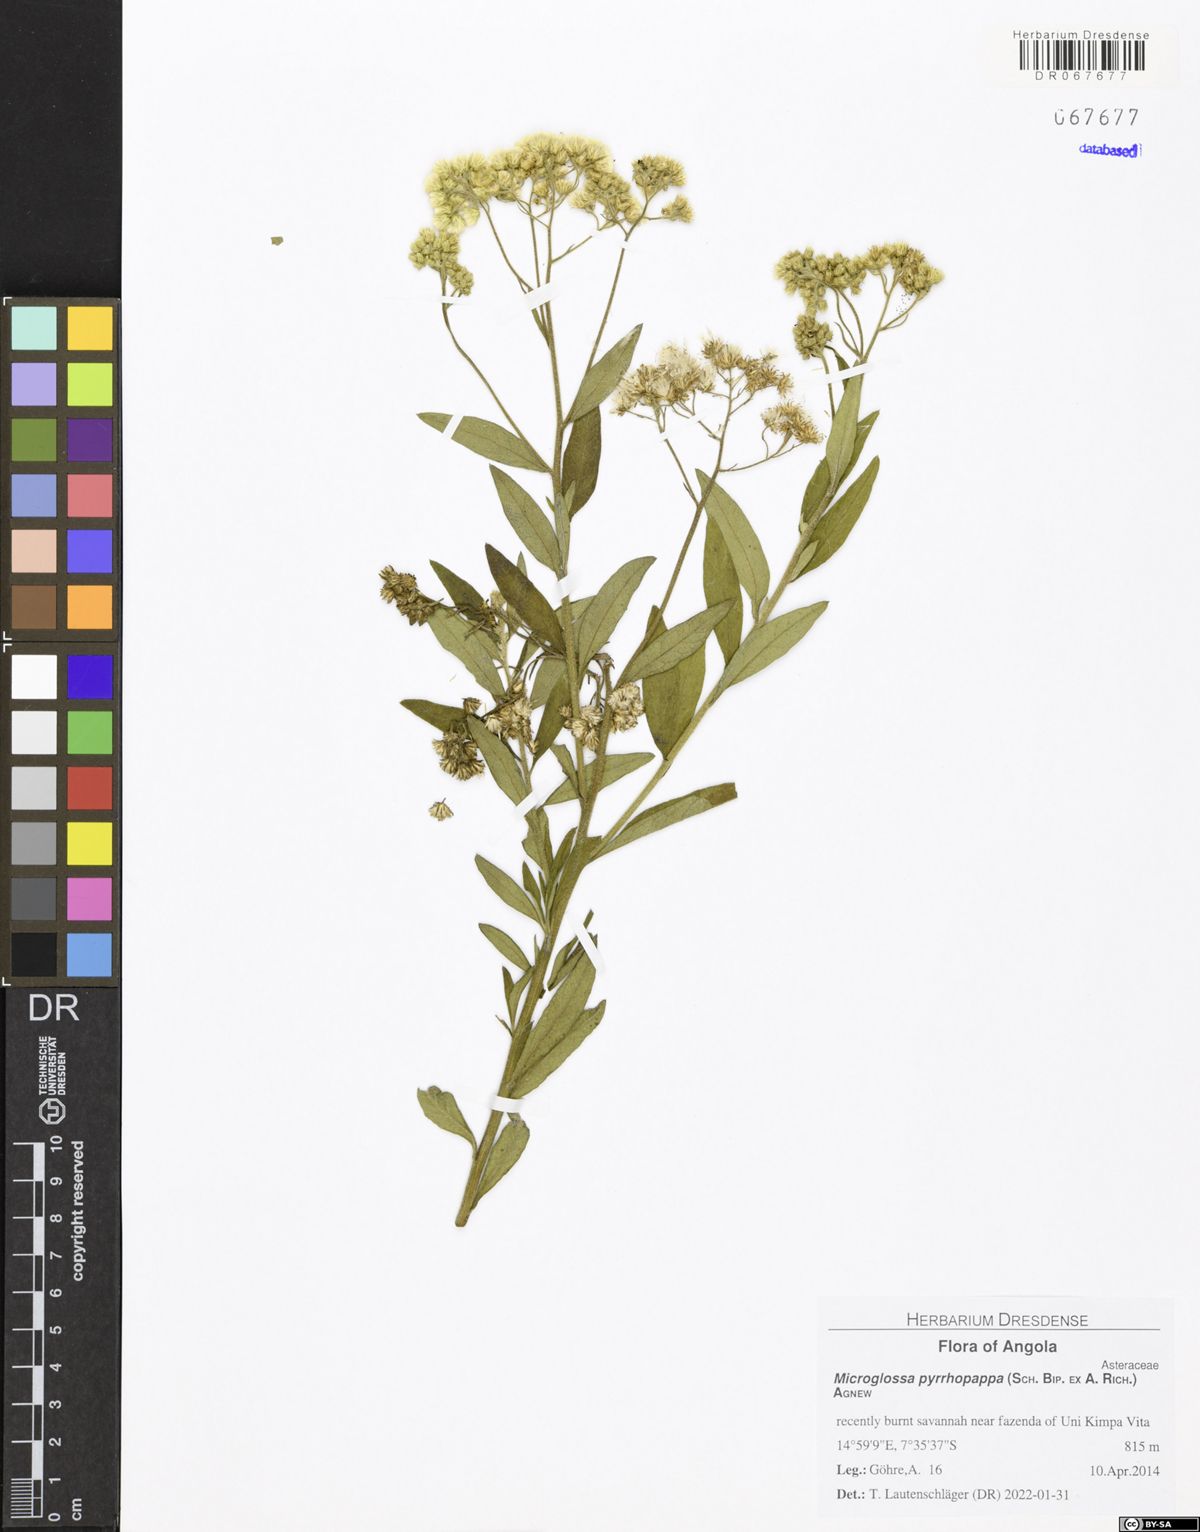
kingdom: Plantae
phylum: Tracheophyta
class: Magnoliopsida
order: Asterales
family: Asteraceae
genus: Microglossa
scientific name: Microglossa pyrrhopappa
